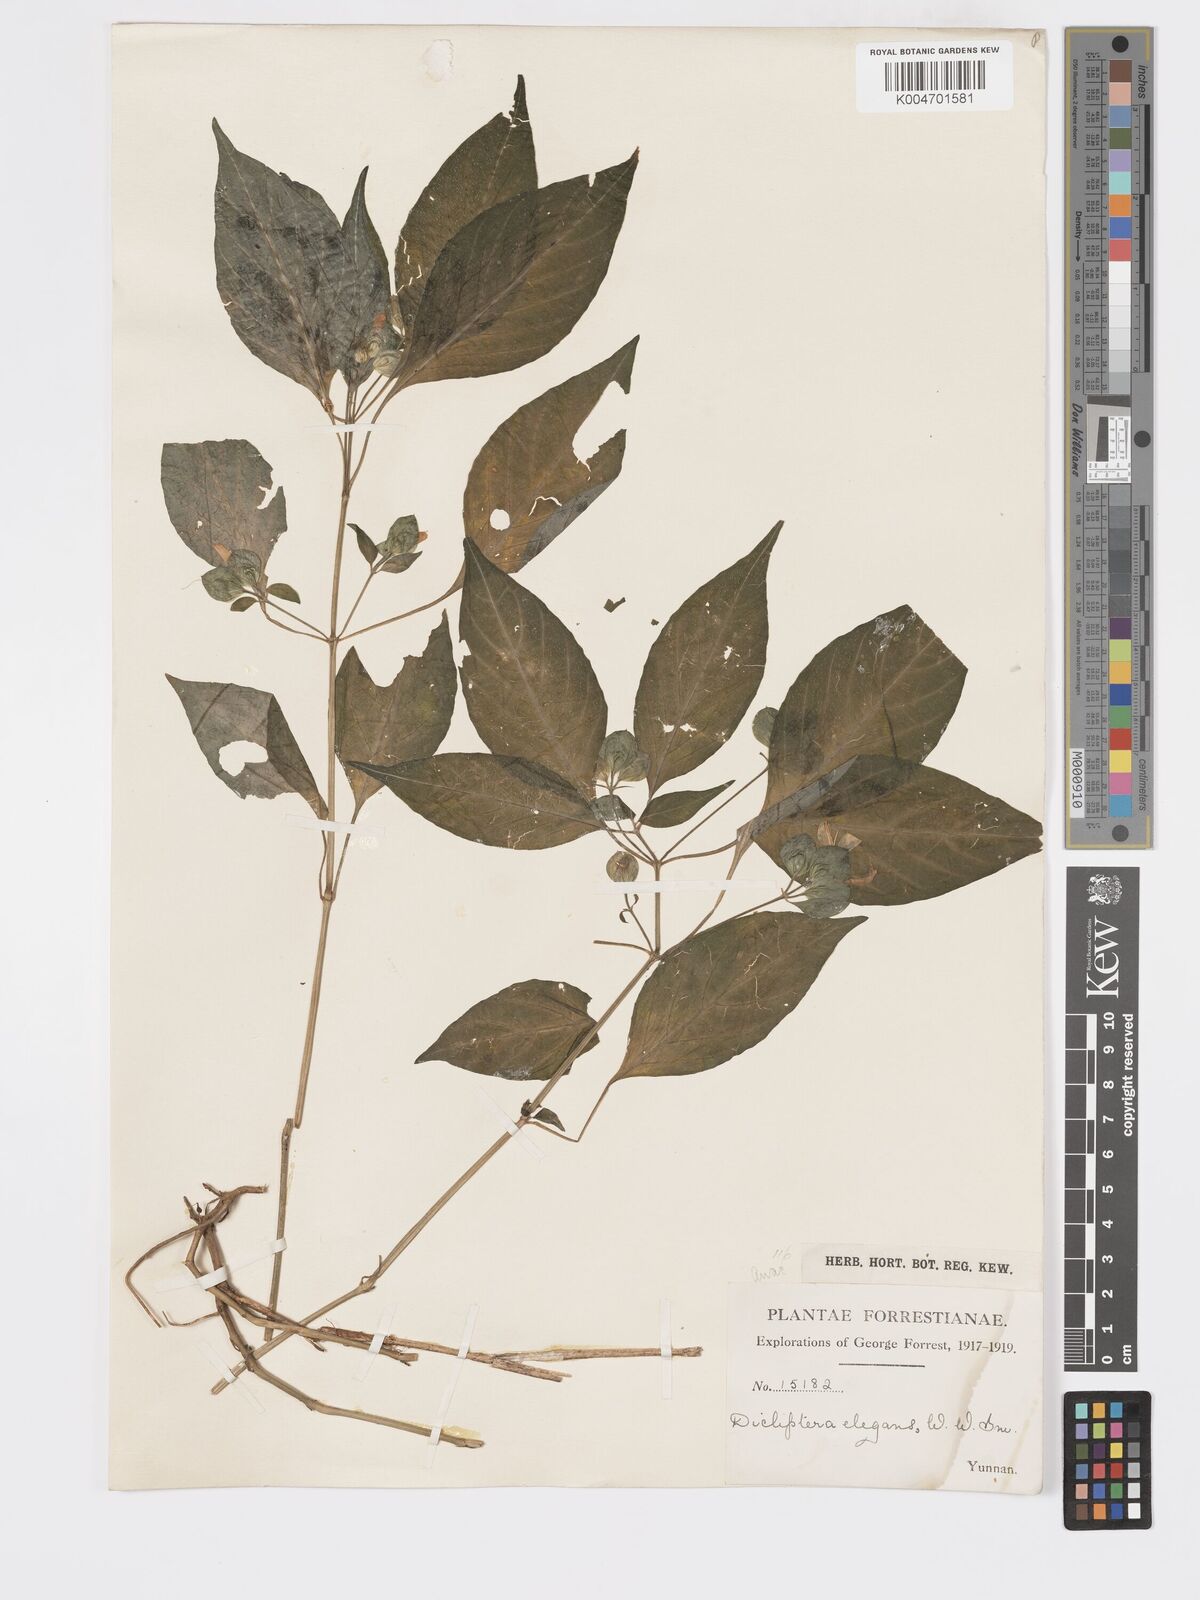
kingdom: Plantae
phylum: Tracheophyta
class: Magnoliopsida
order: Lamiales
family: Acanthaceae
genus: Dicliptera
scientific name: Dicliptera elegans
